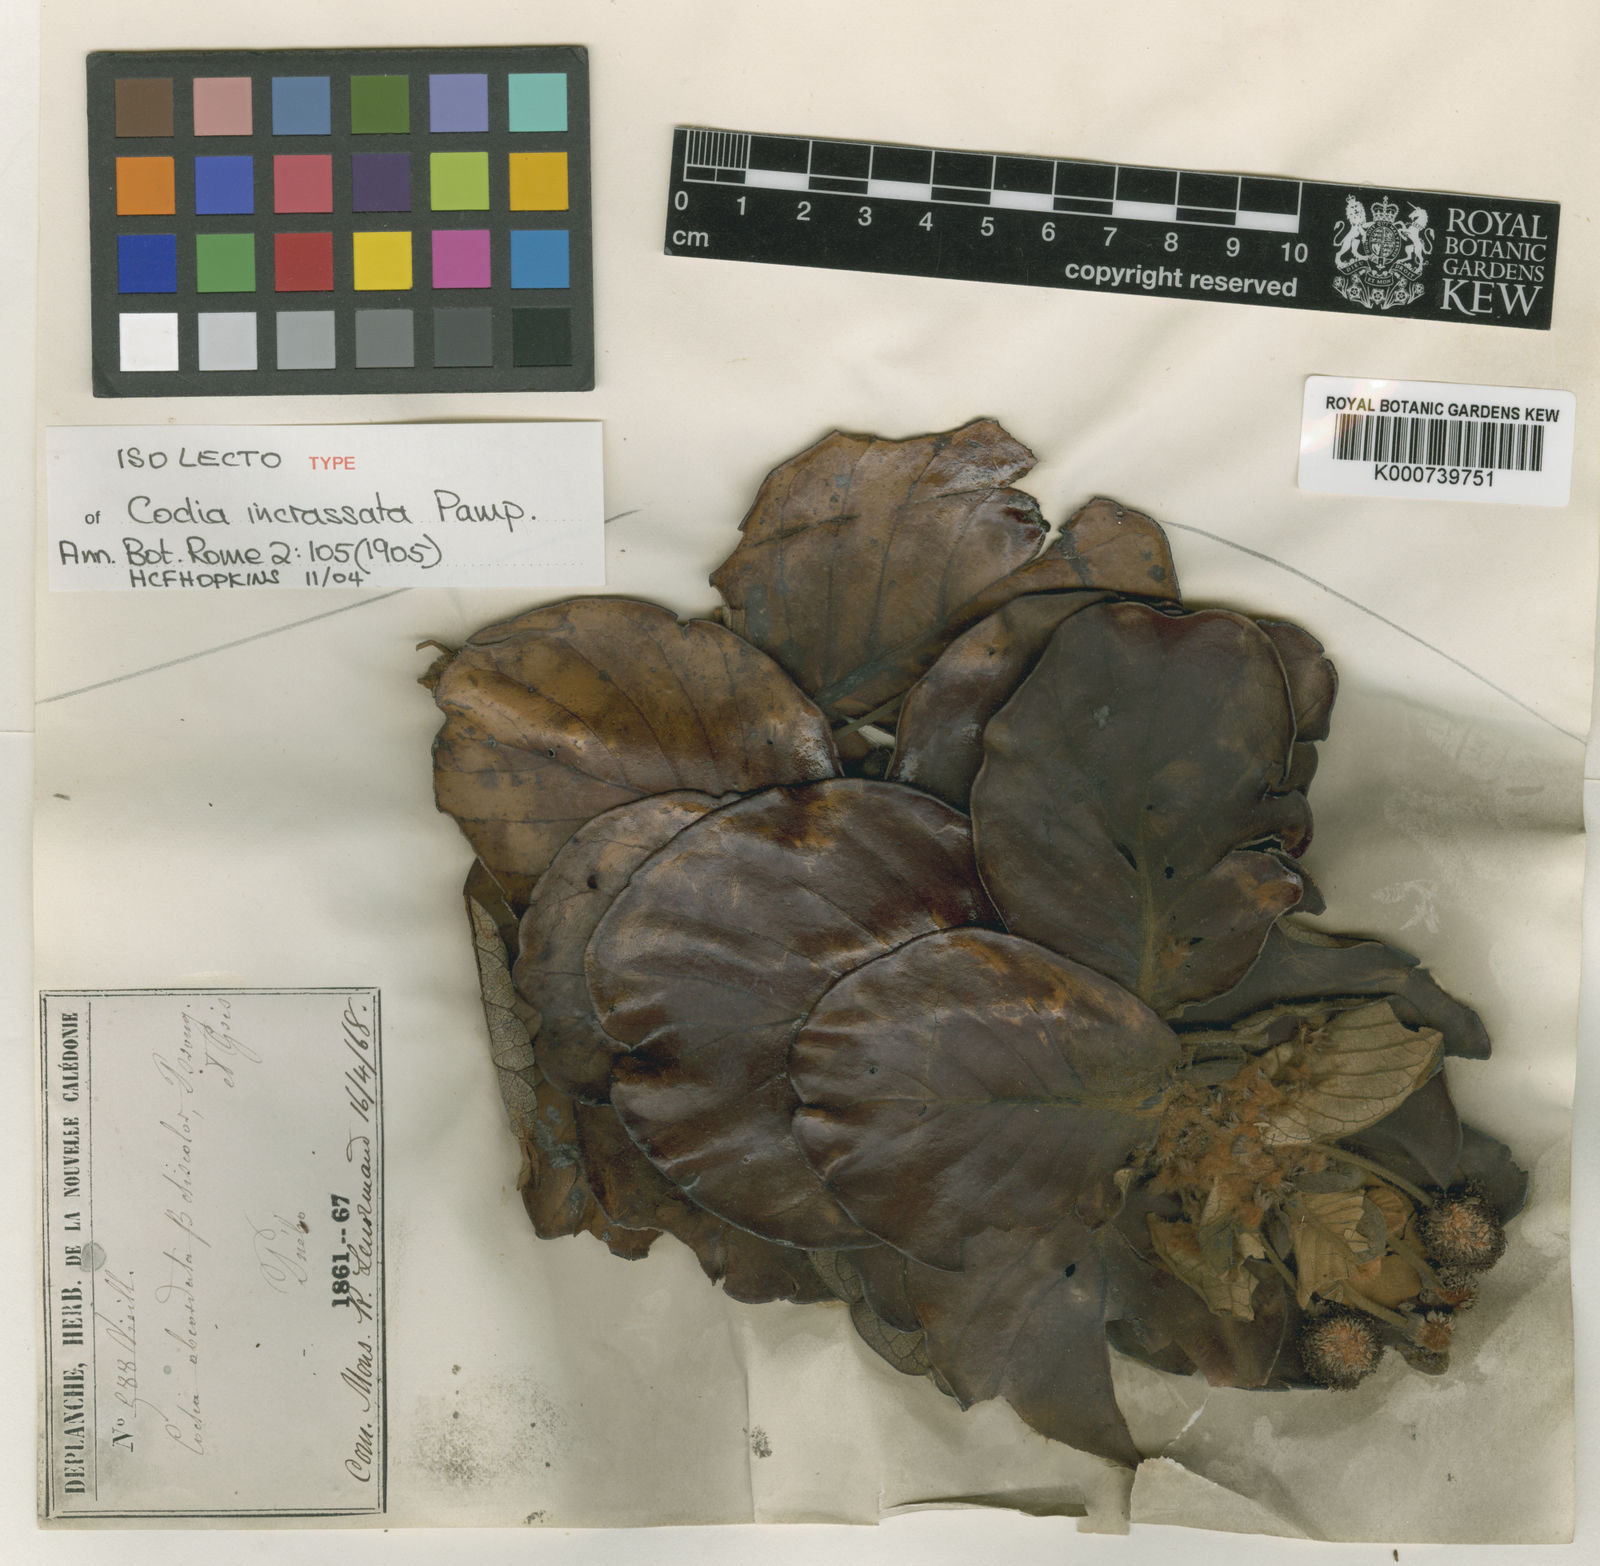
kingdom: Plantae
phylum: Tracheophyta
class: Magnoliopsida
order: Oxalidales
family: Cunoniaceae
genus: Codia
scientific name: Codia incrassata
